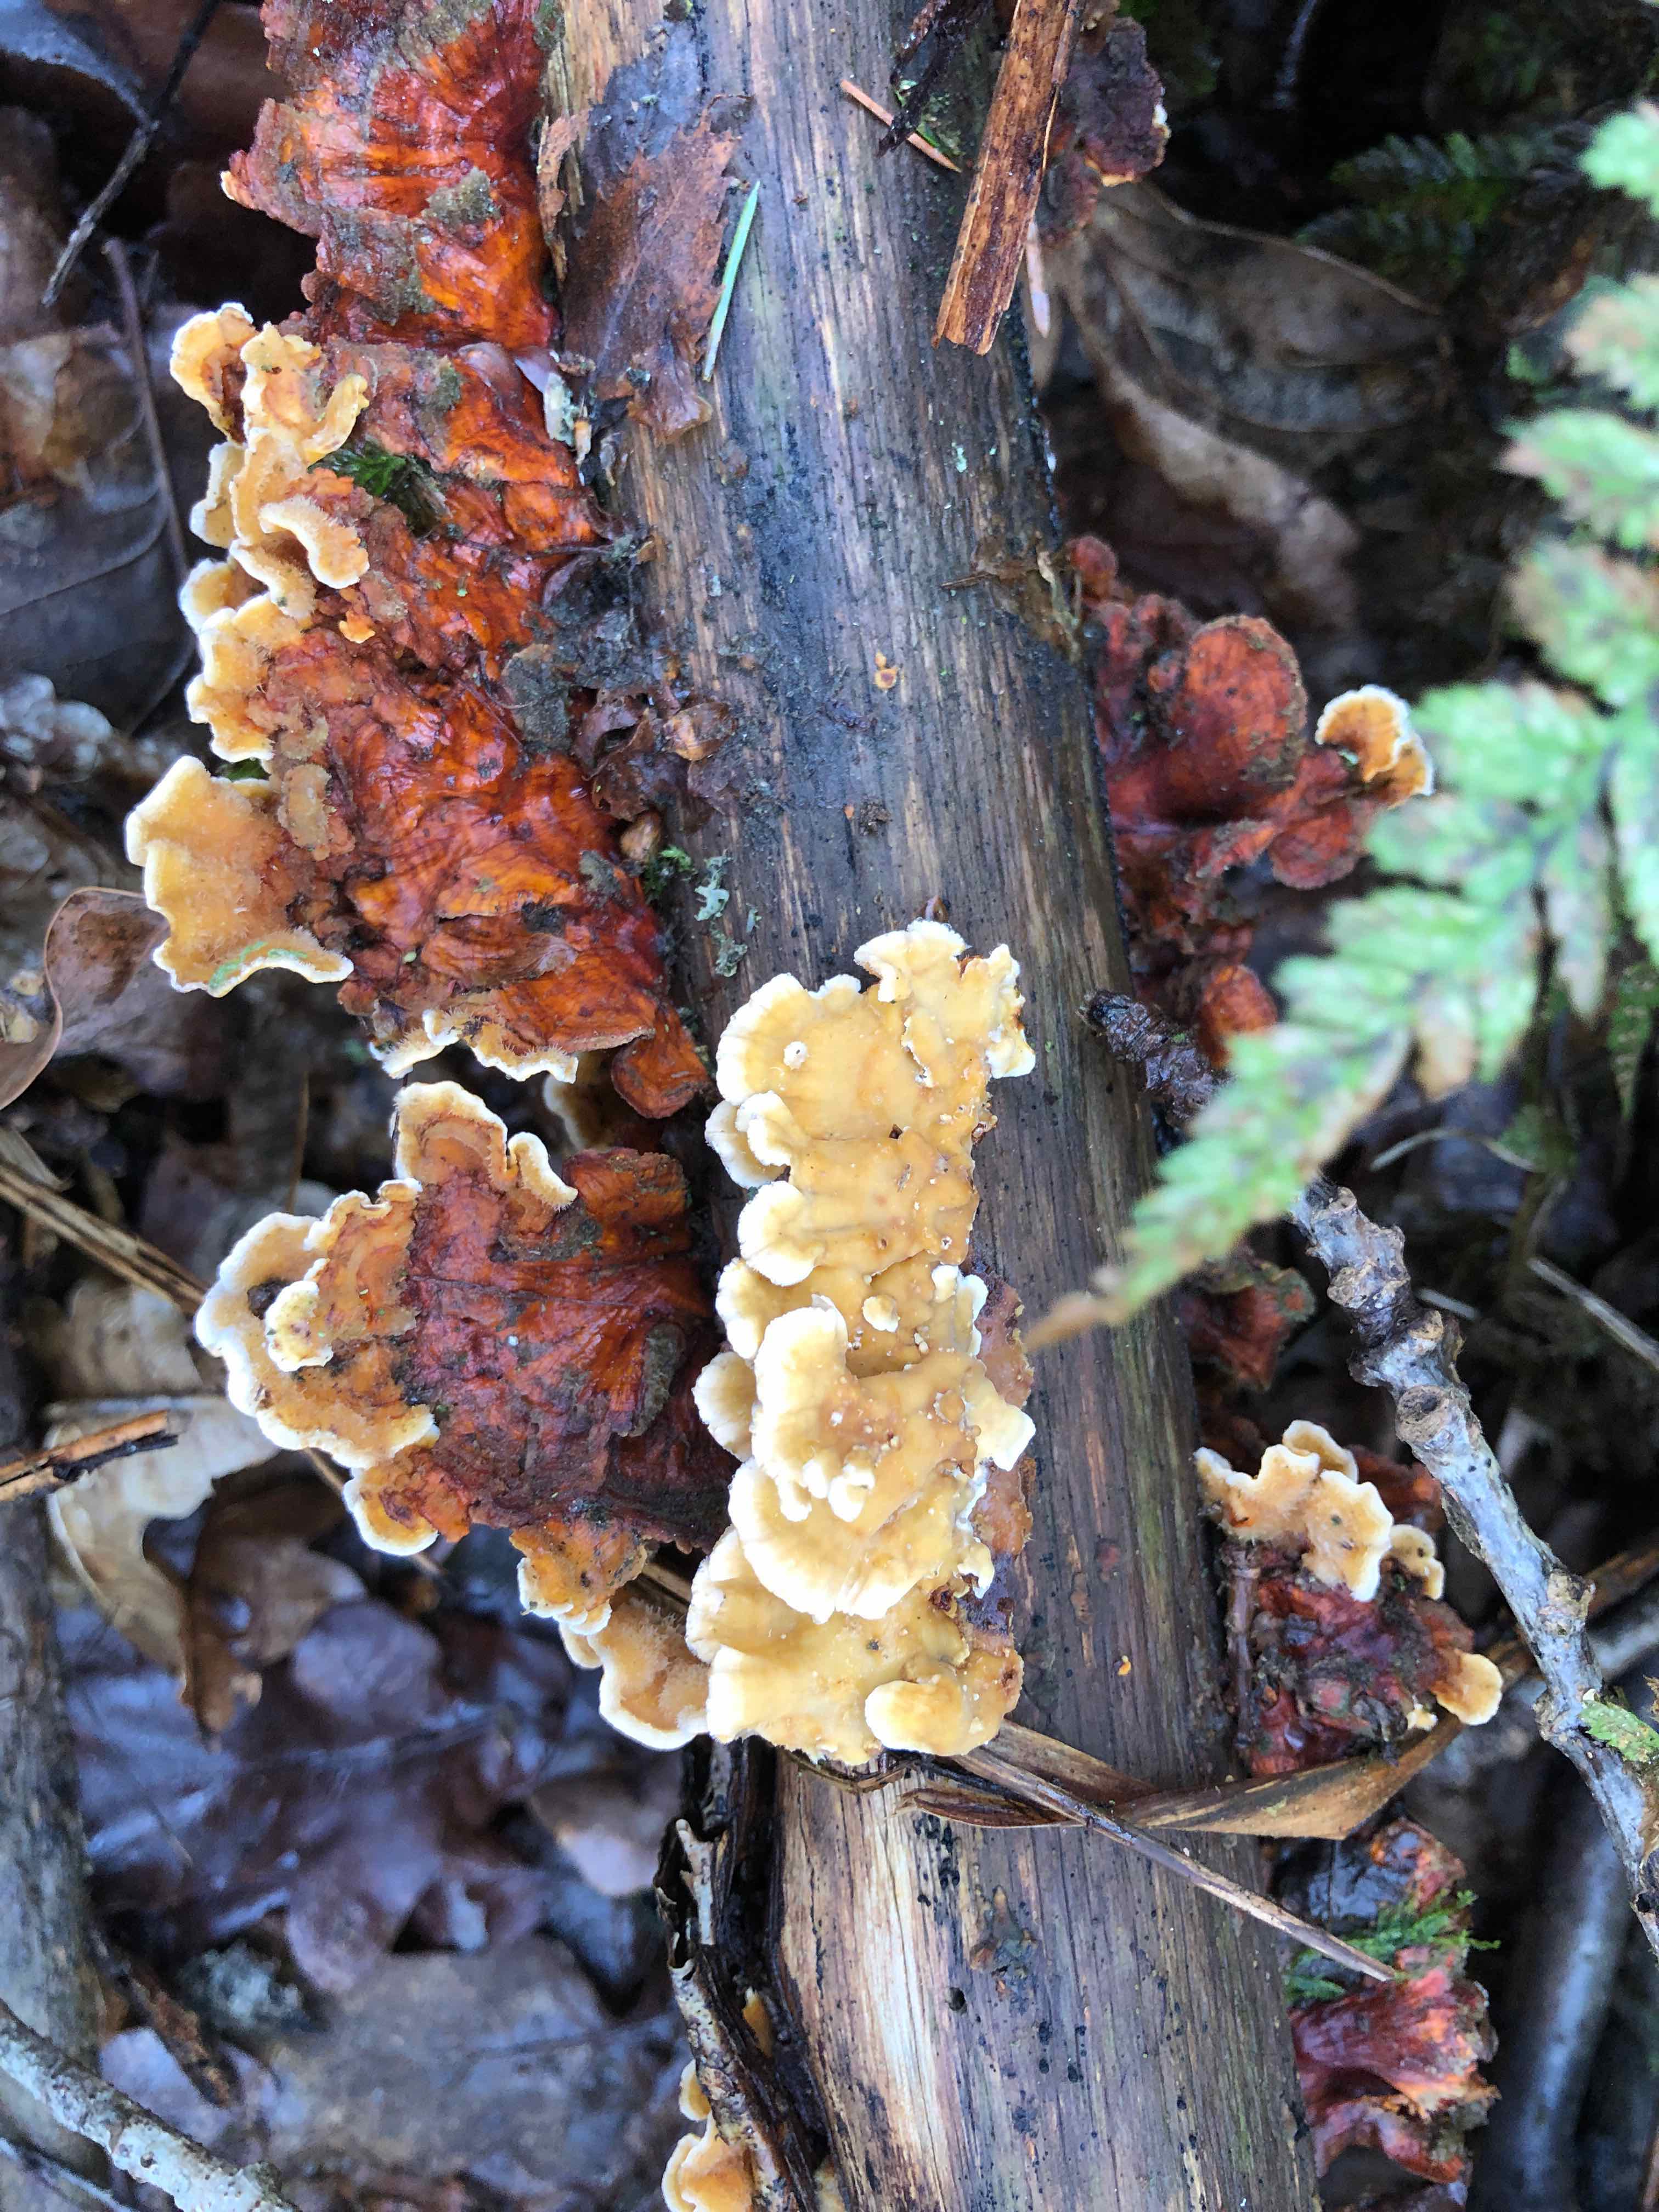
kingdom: Fungi
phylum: Basidiomycota
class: Agaricomycetes
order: Russulales
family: Stereaceae
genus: Stereum
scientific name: Stereum subtomentosum
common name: smuk lædersvamp
